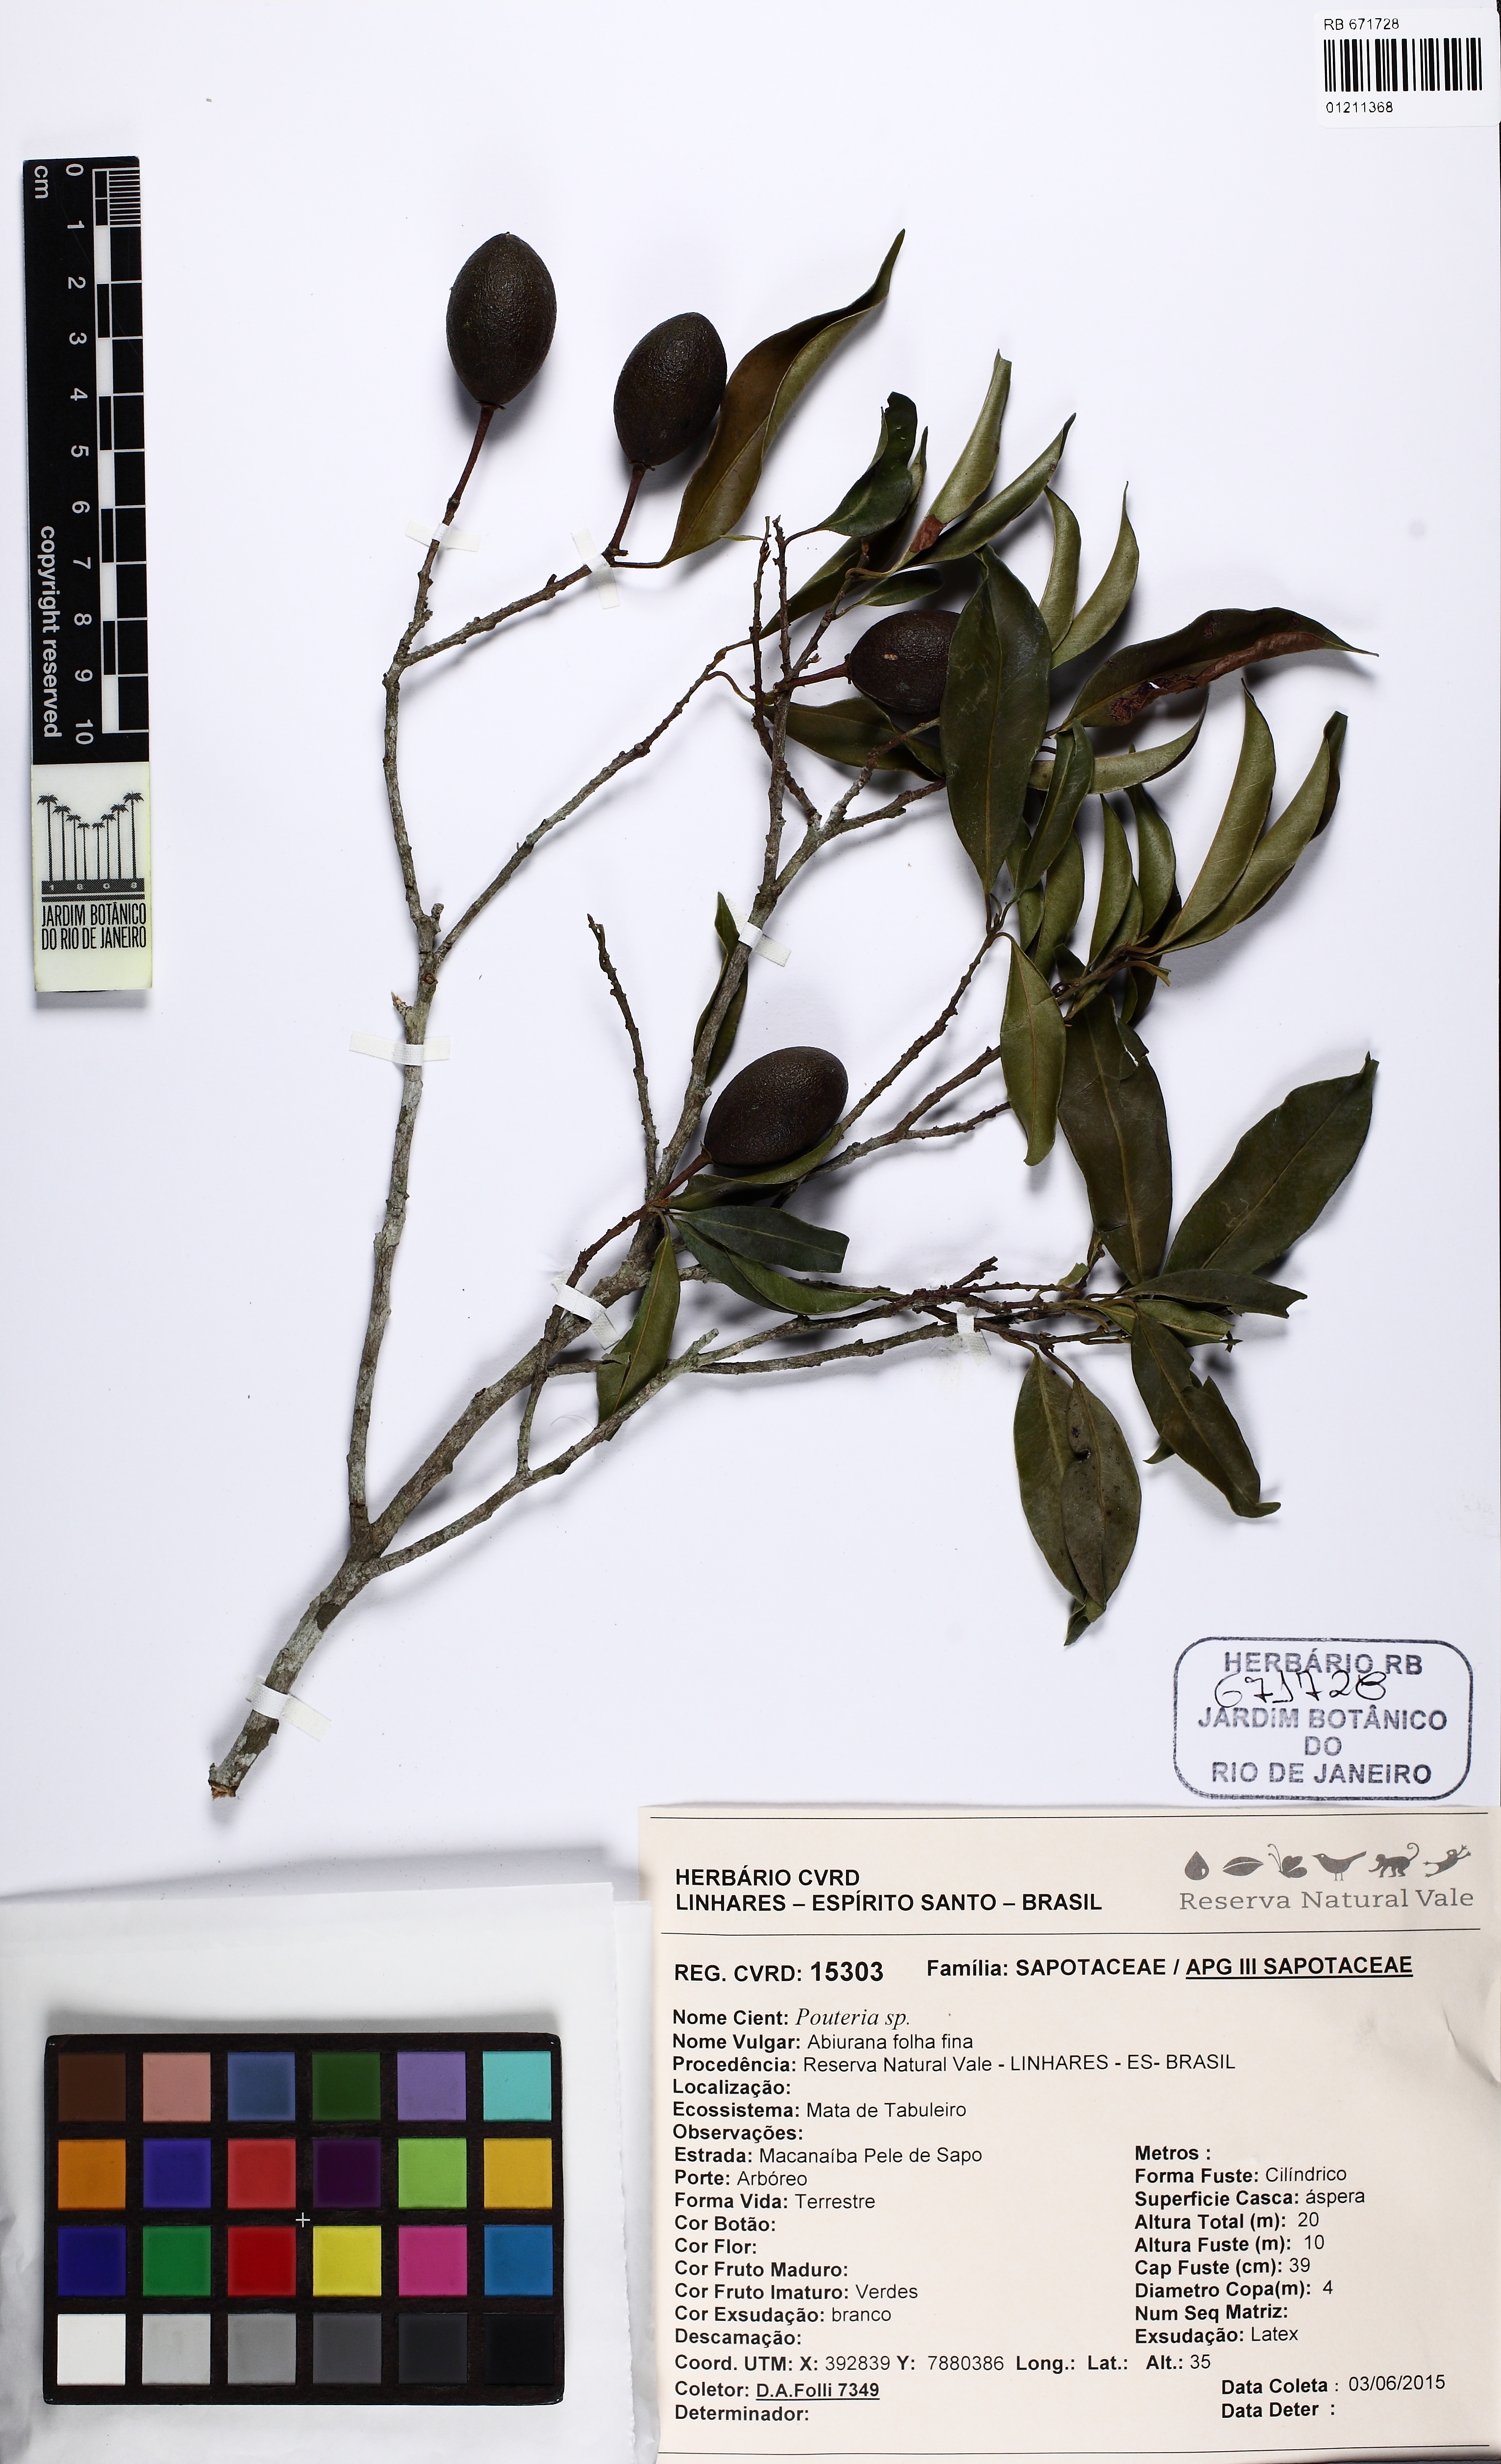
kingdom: Plantae
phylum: Tracheophyta
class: Magnoliopsida
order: Ericales
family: Sapotaceae
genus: Pradosia
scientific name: Pradosia kuhlmannii
